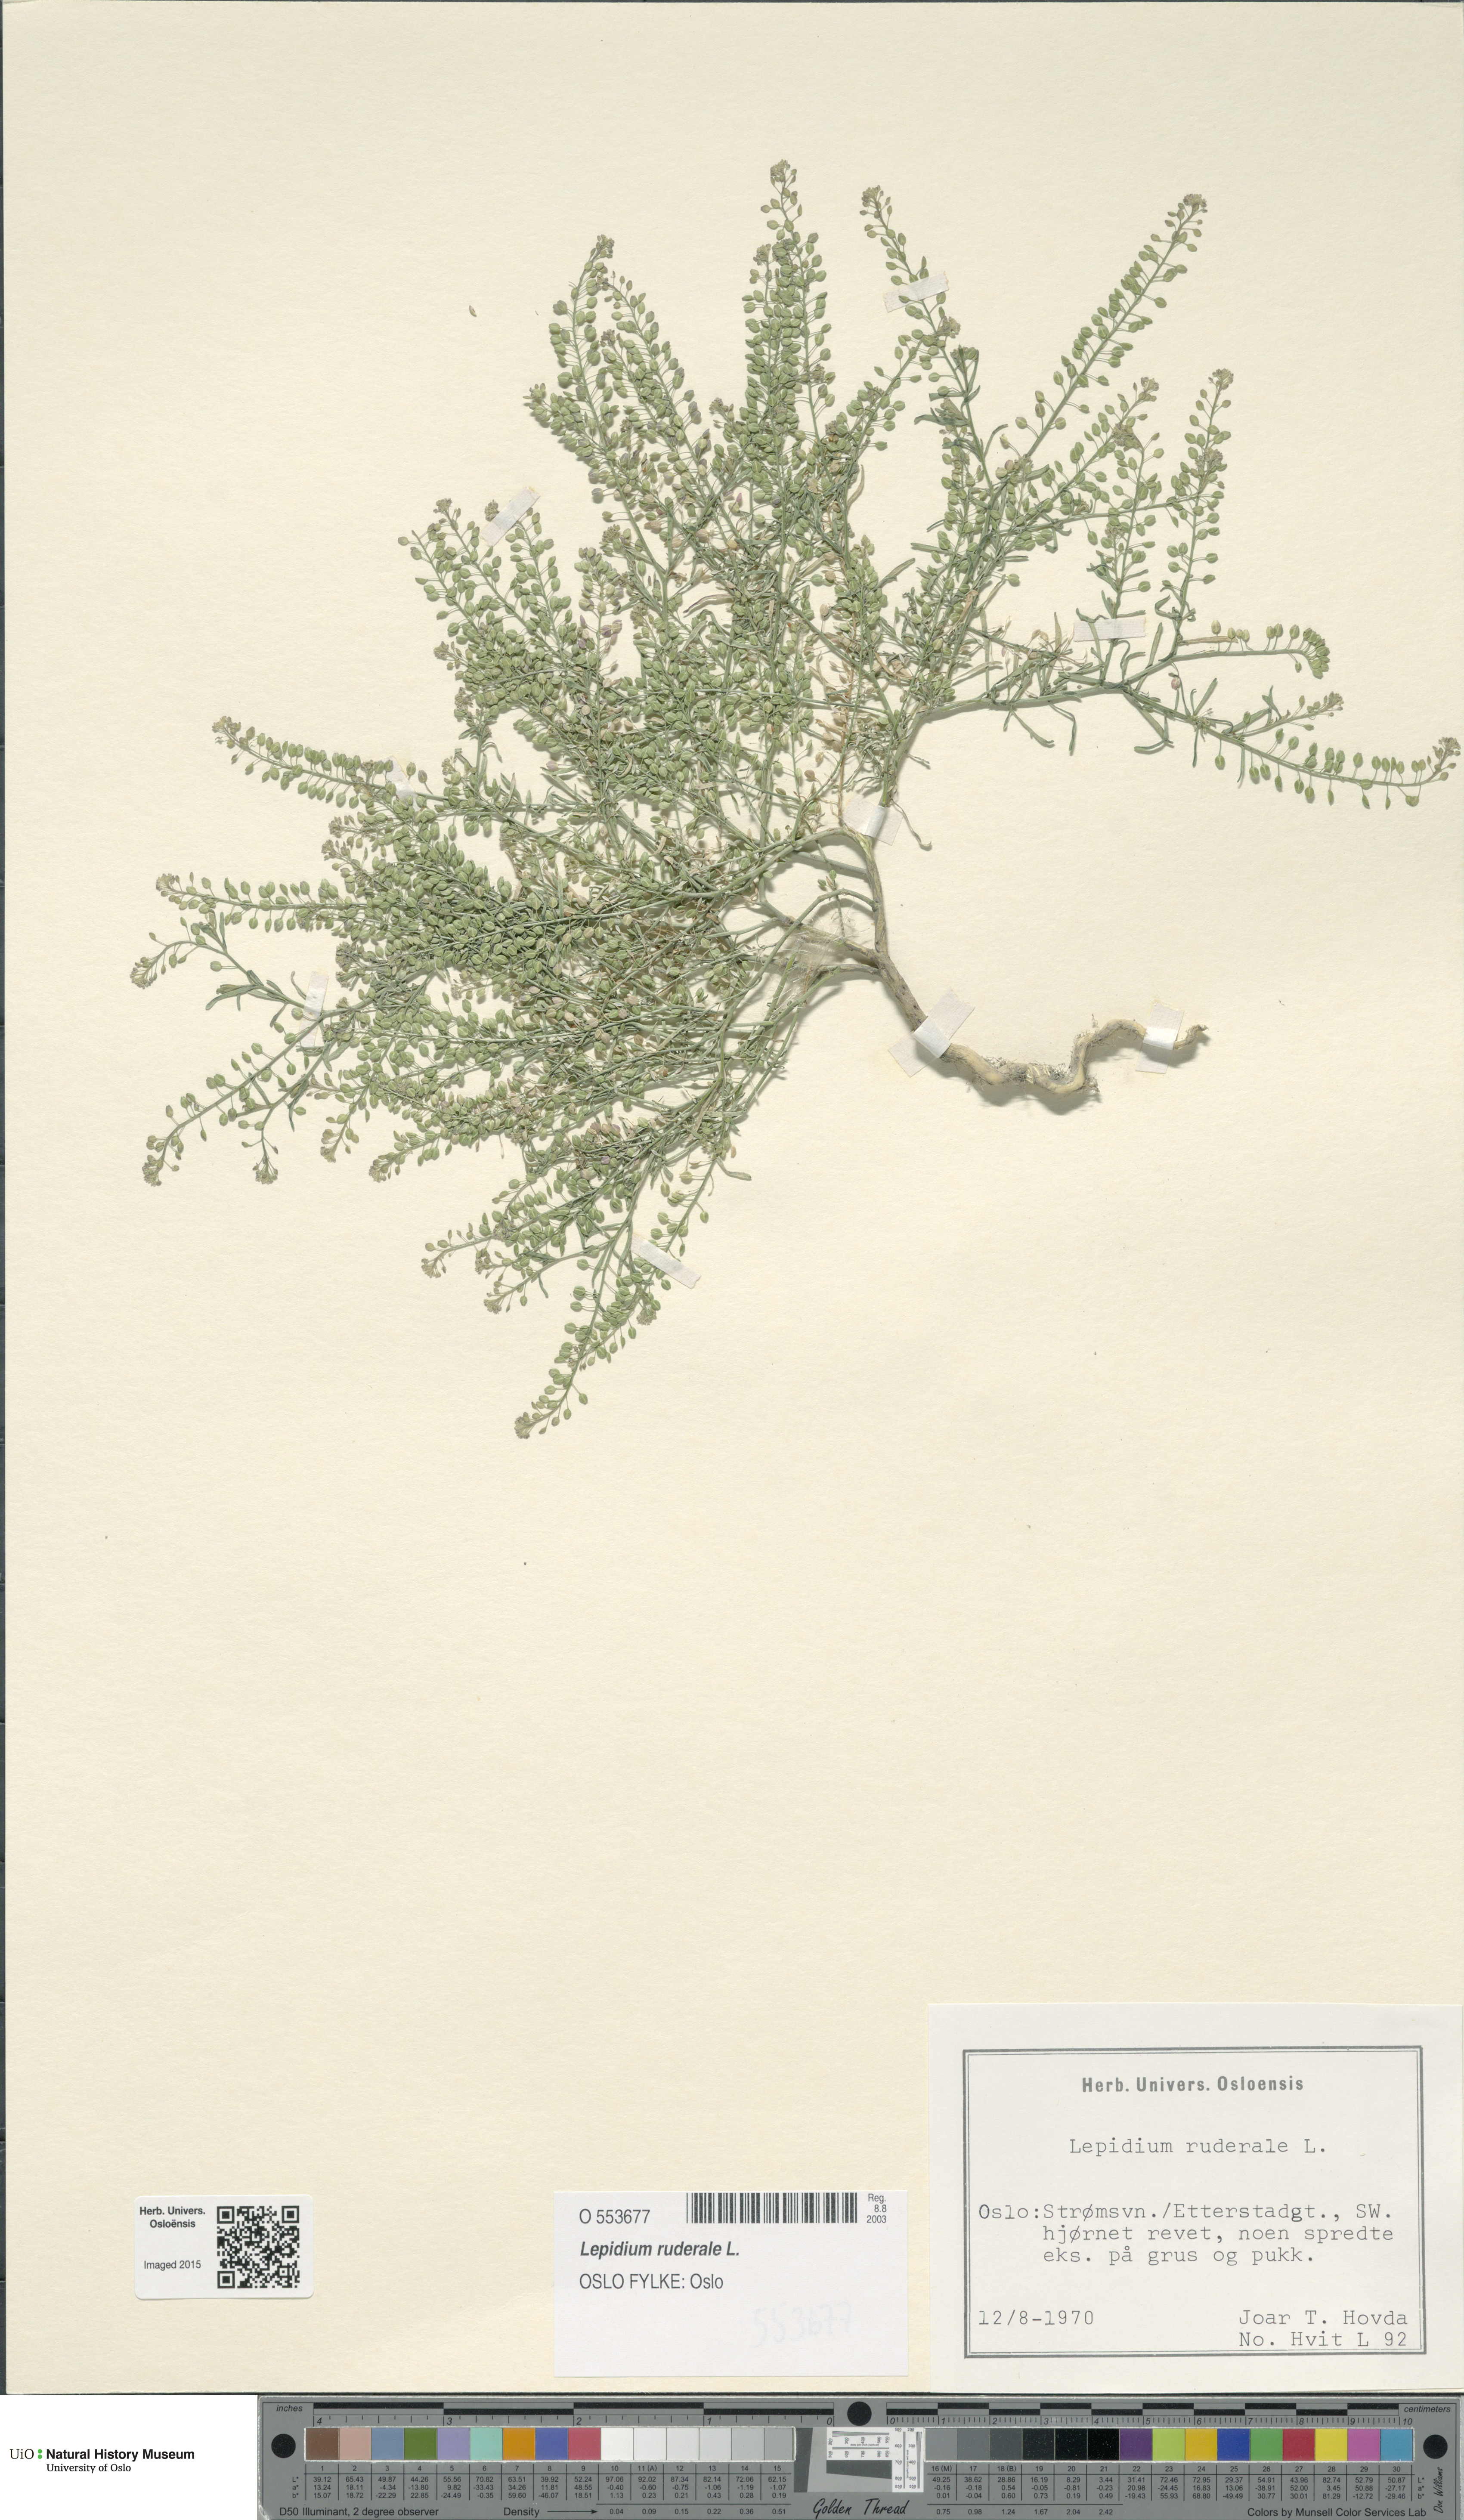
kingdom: Plantae
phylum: Tracheophyta
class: Magnoliopsida
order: Brassicales
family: Brassicaceae
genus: Lepidium
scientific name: Lepidium ruderale
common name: Narrow-leaved pepperwort
